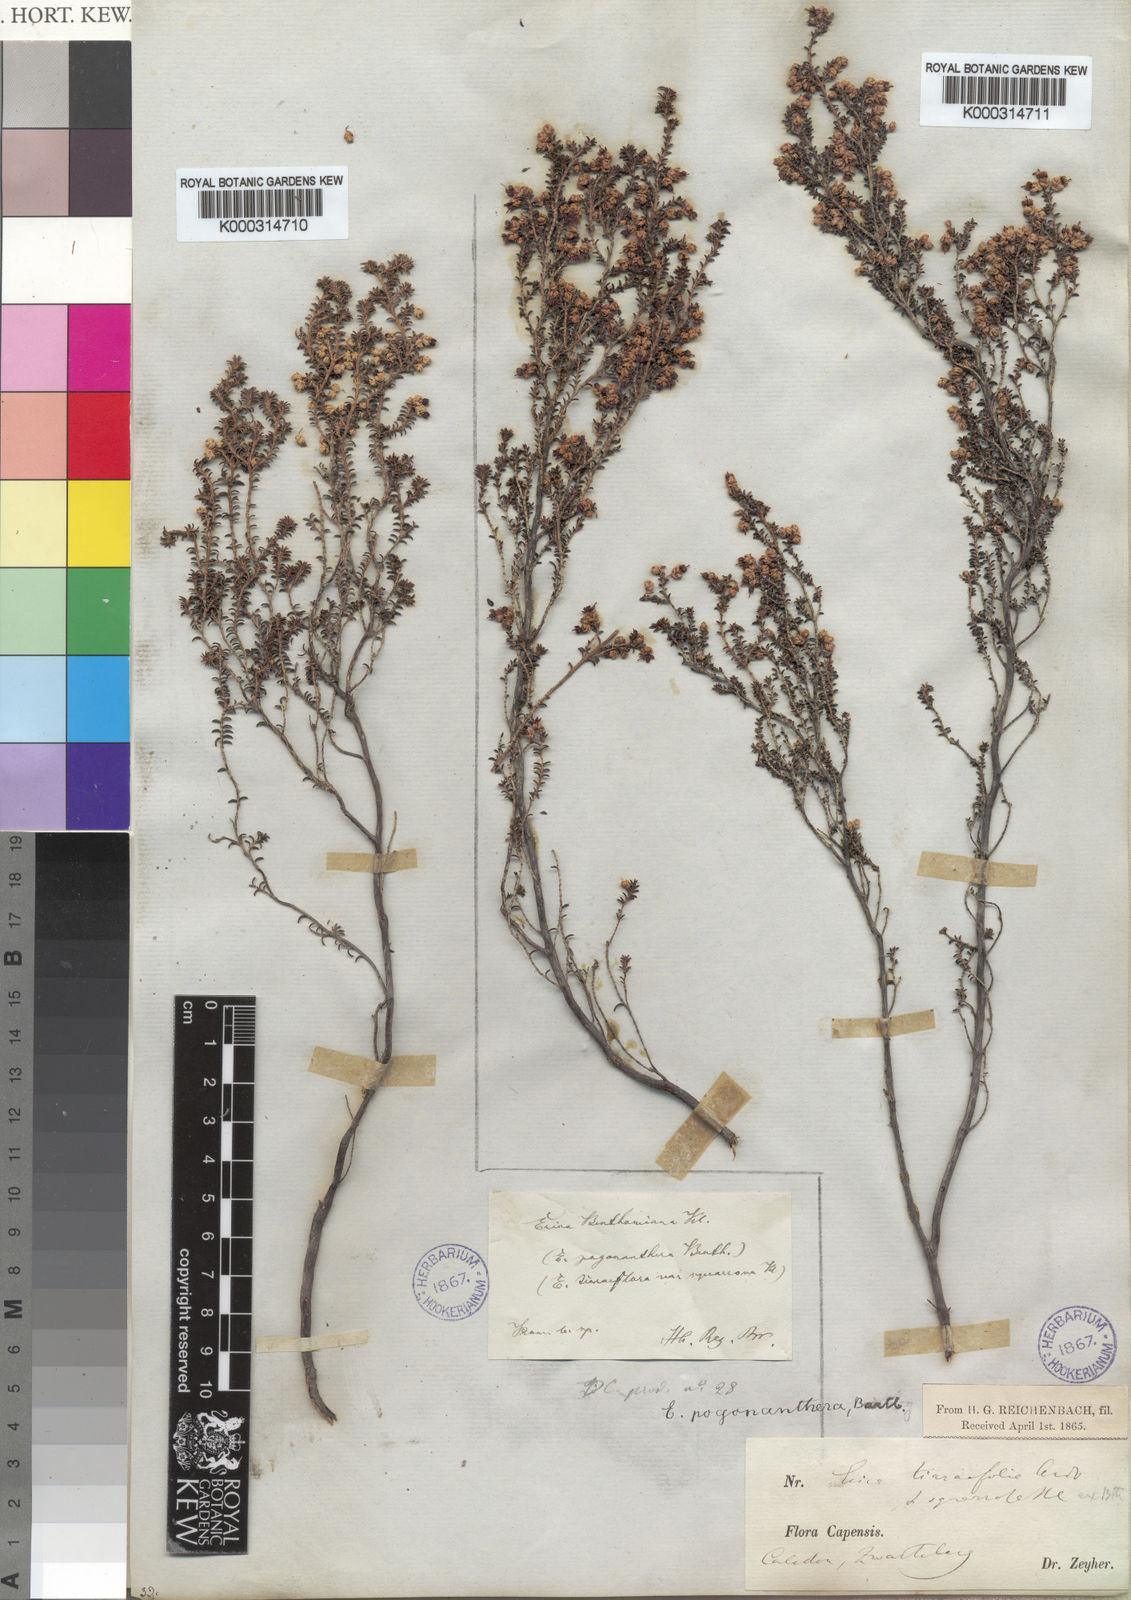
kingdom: Plantae
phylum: Tracheophyta
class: Magnoliopsida
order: Ericales
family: Ericaceae
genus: Erica
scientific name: Erica pogonanthera
